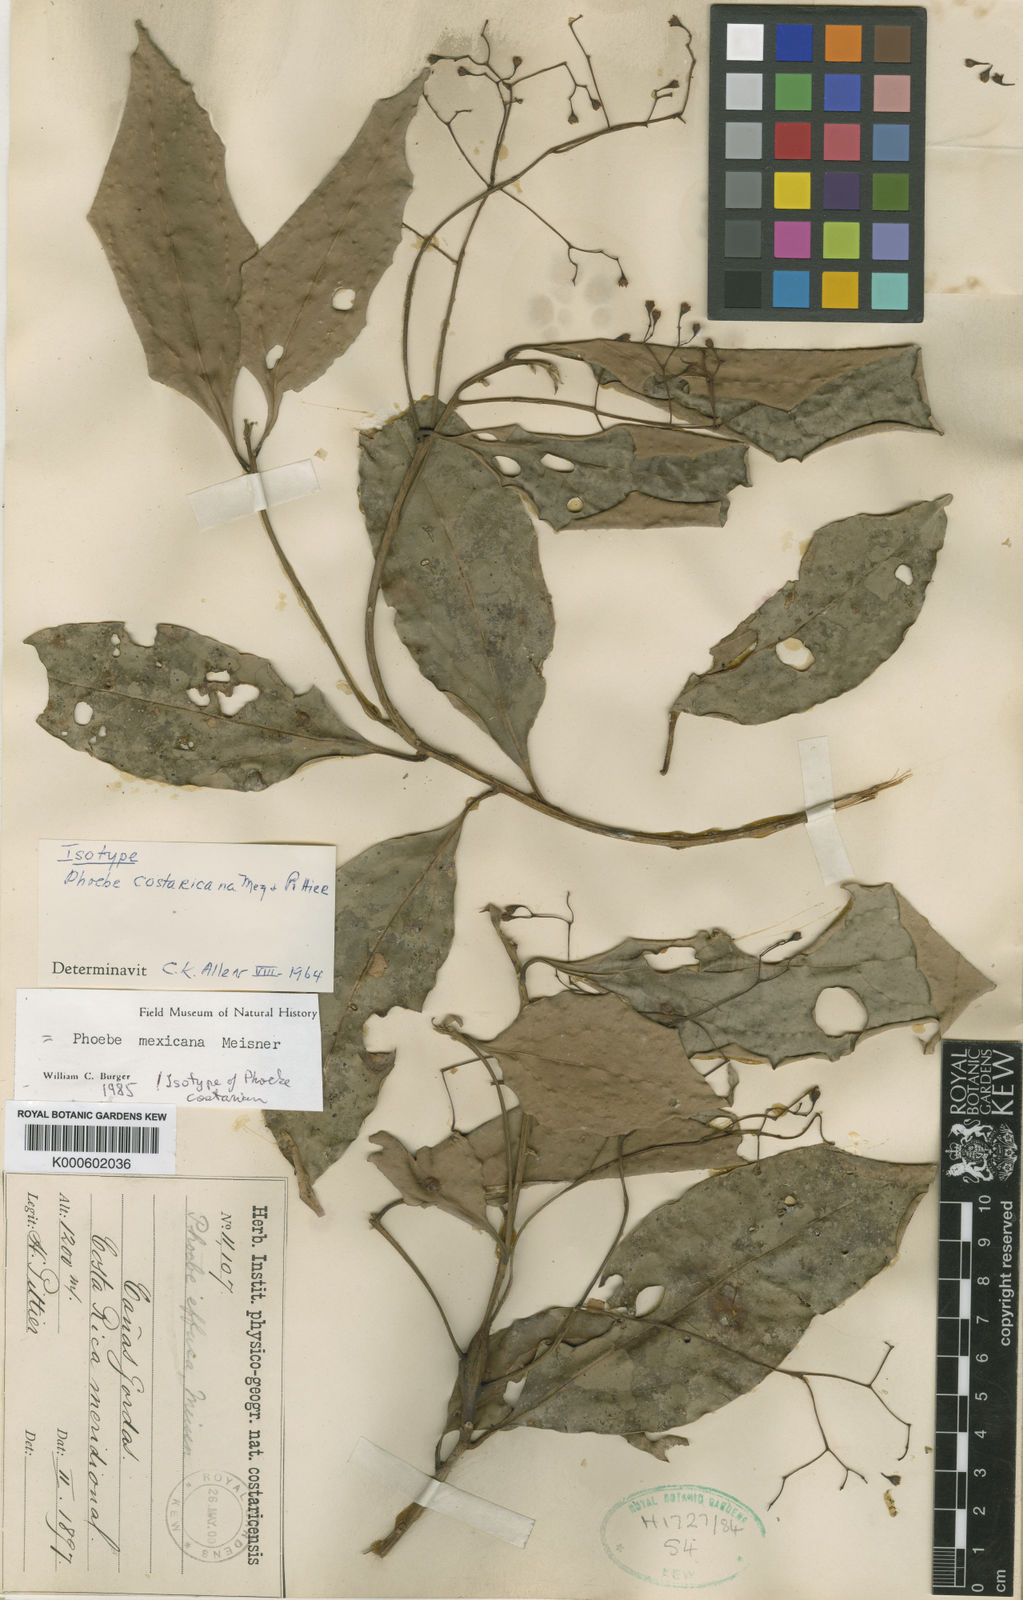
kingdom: Plantae
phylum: Tracheophyta
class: Magnoliopsida
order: Laurales
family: Lauraceae
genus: Aiouea
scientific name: Aiouea montana
